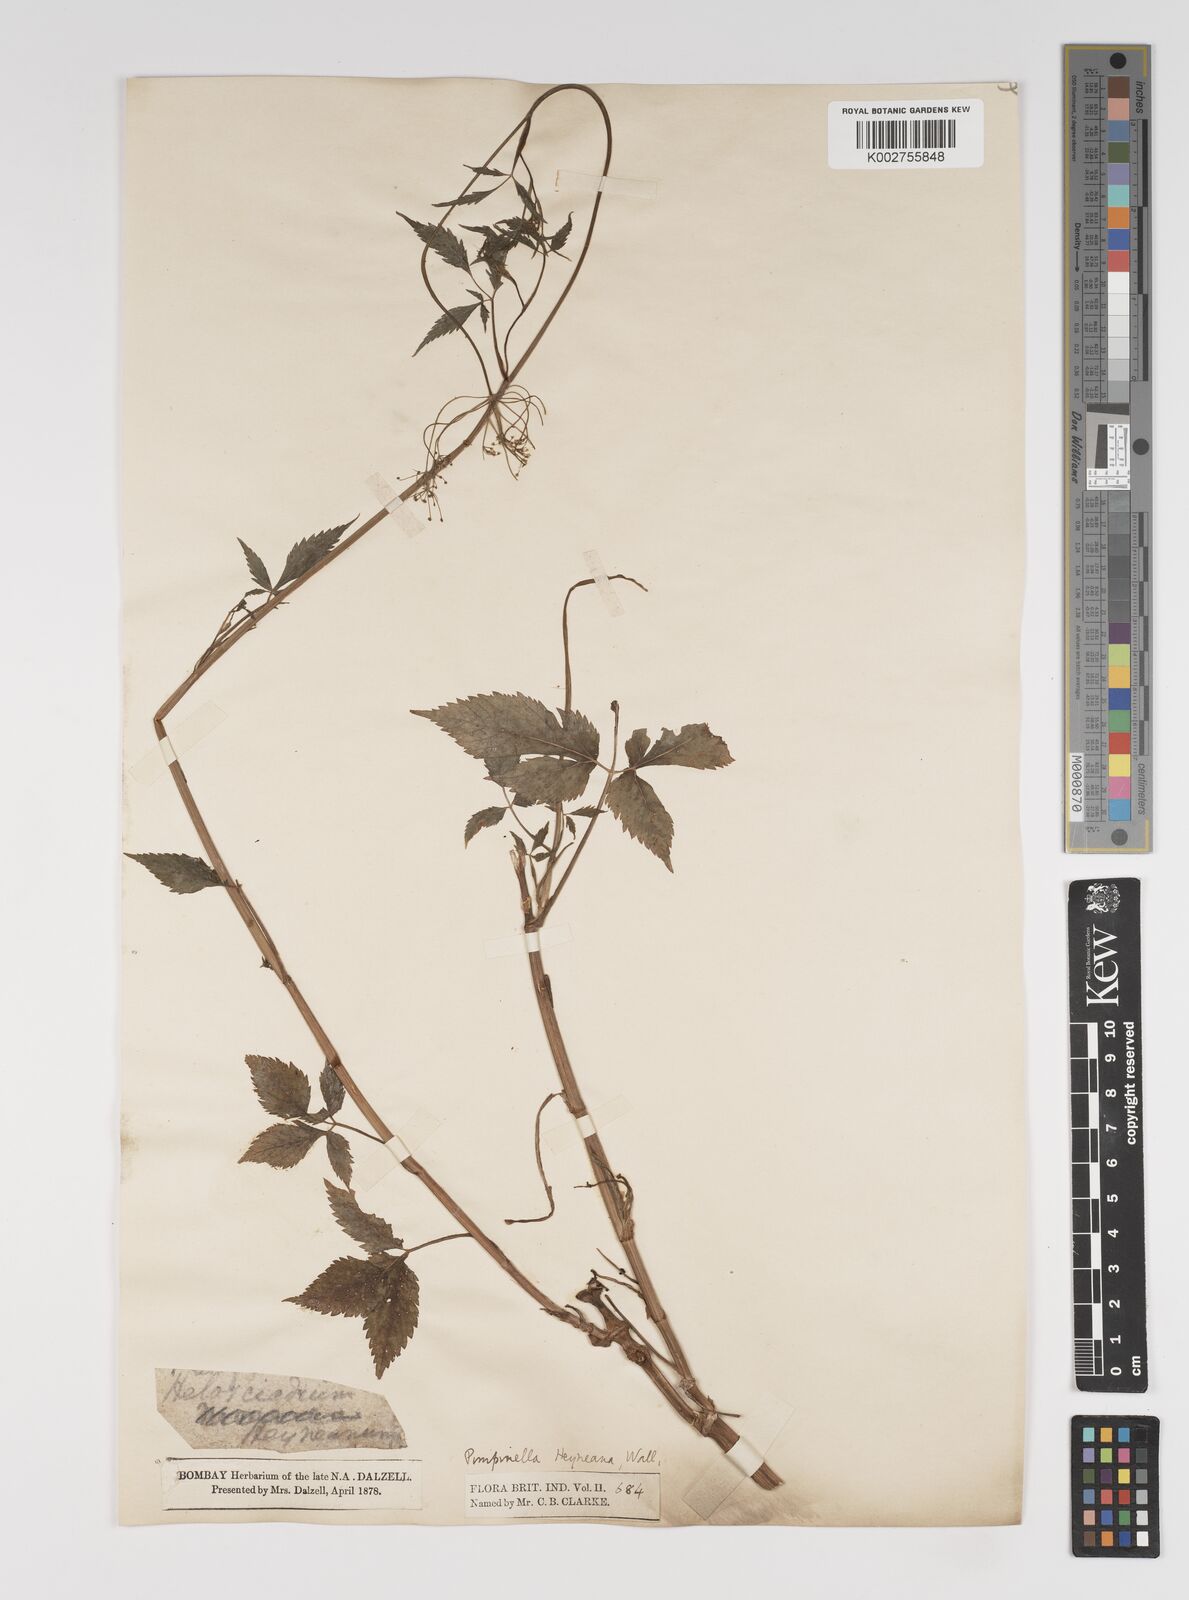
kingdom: Plantae
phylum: Tracheophyta
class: Magnoliopsida
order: Apiales
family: Apiaceae
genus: Pimpinella
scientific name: Pimpinella heyneana
